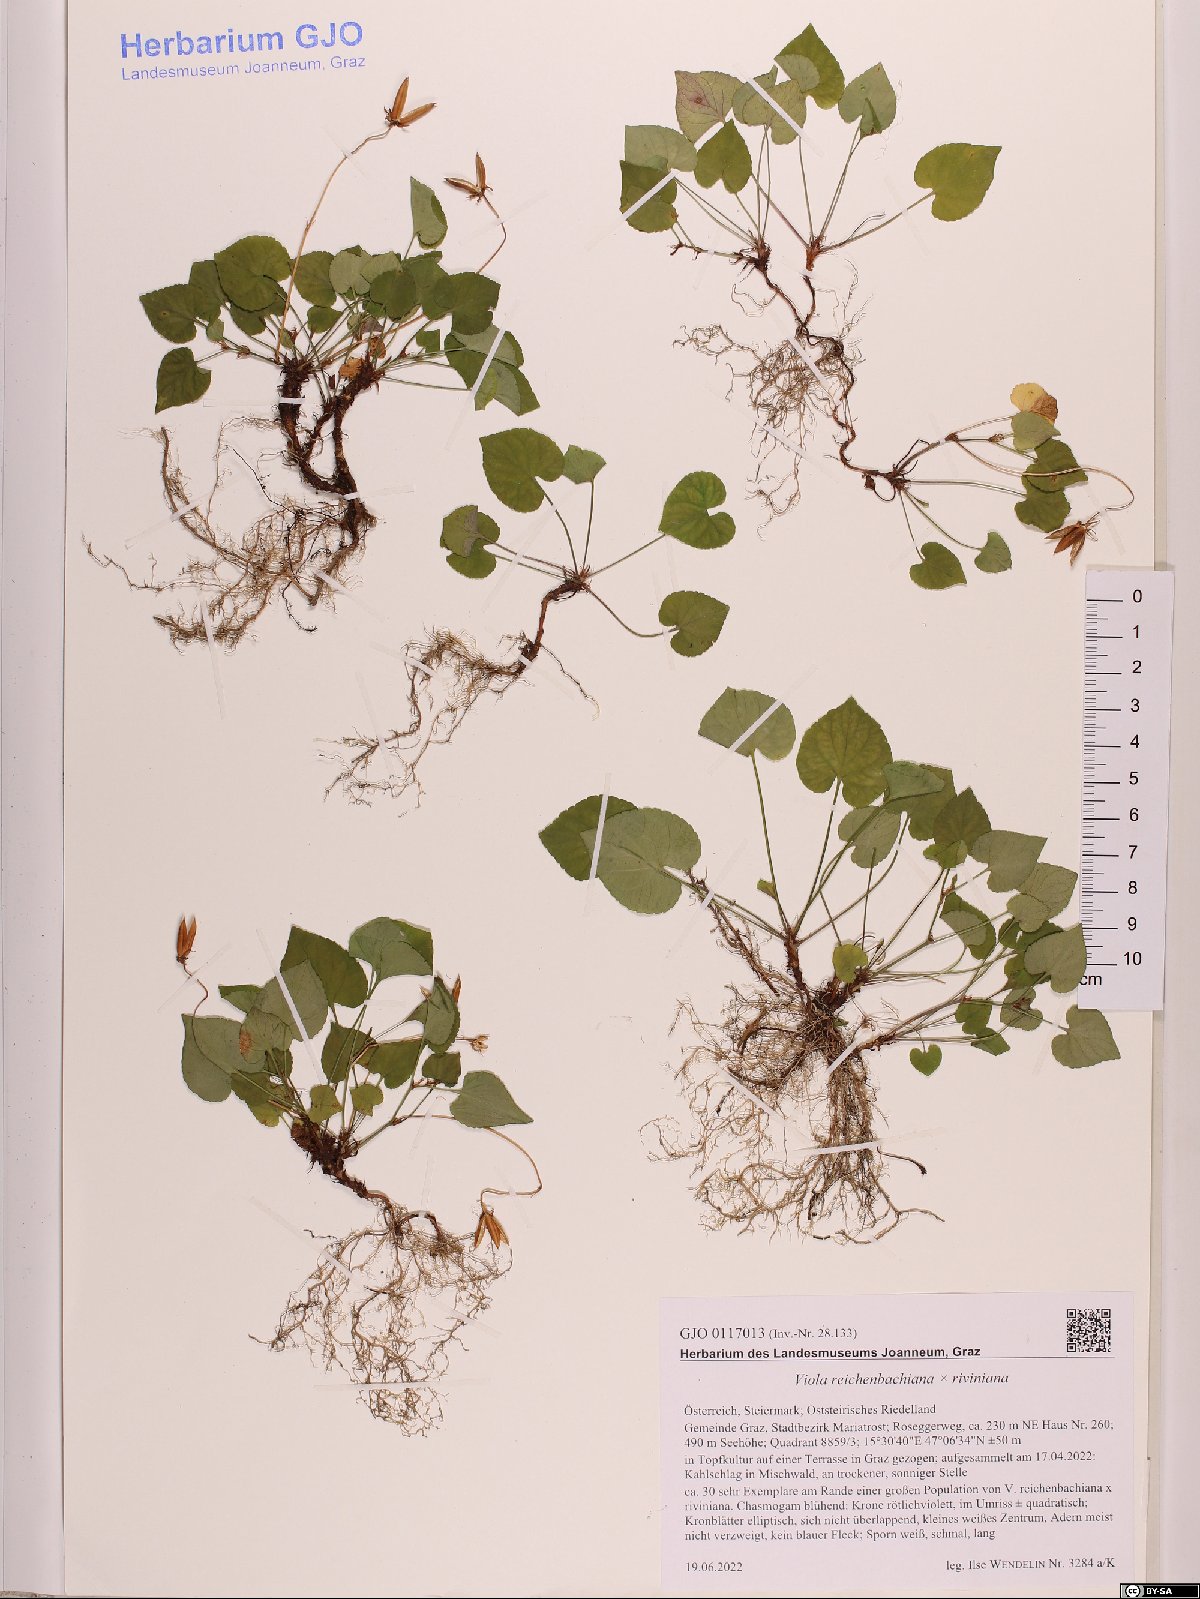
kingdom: Plantae
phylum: Tracheophyta
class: Magnoliopsida
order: Malpighiales
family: Violaceae
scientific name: Violaceae
